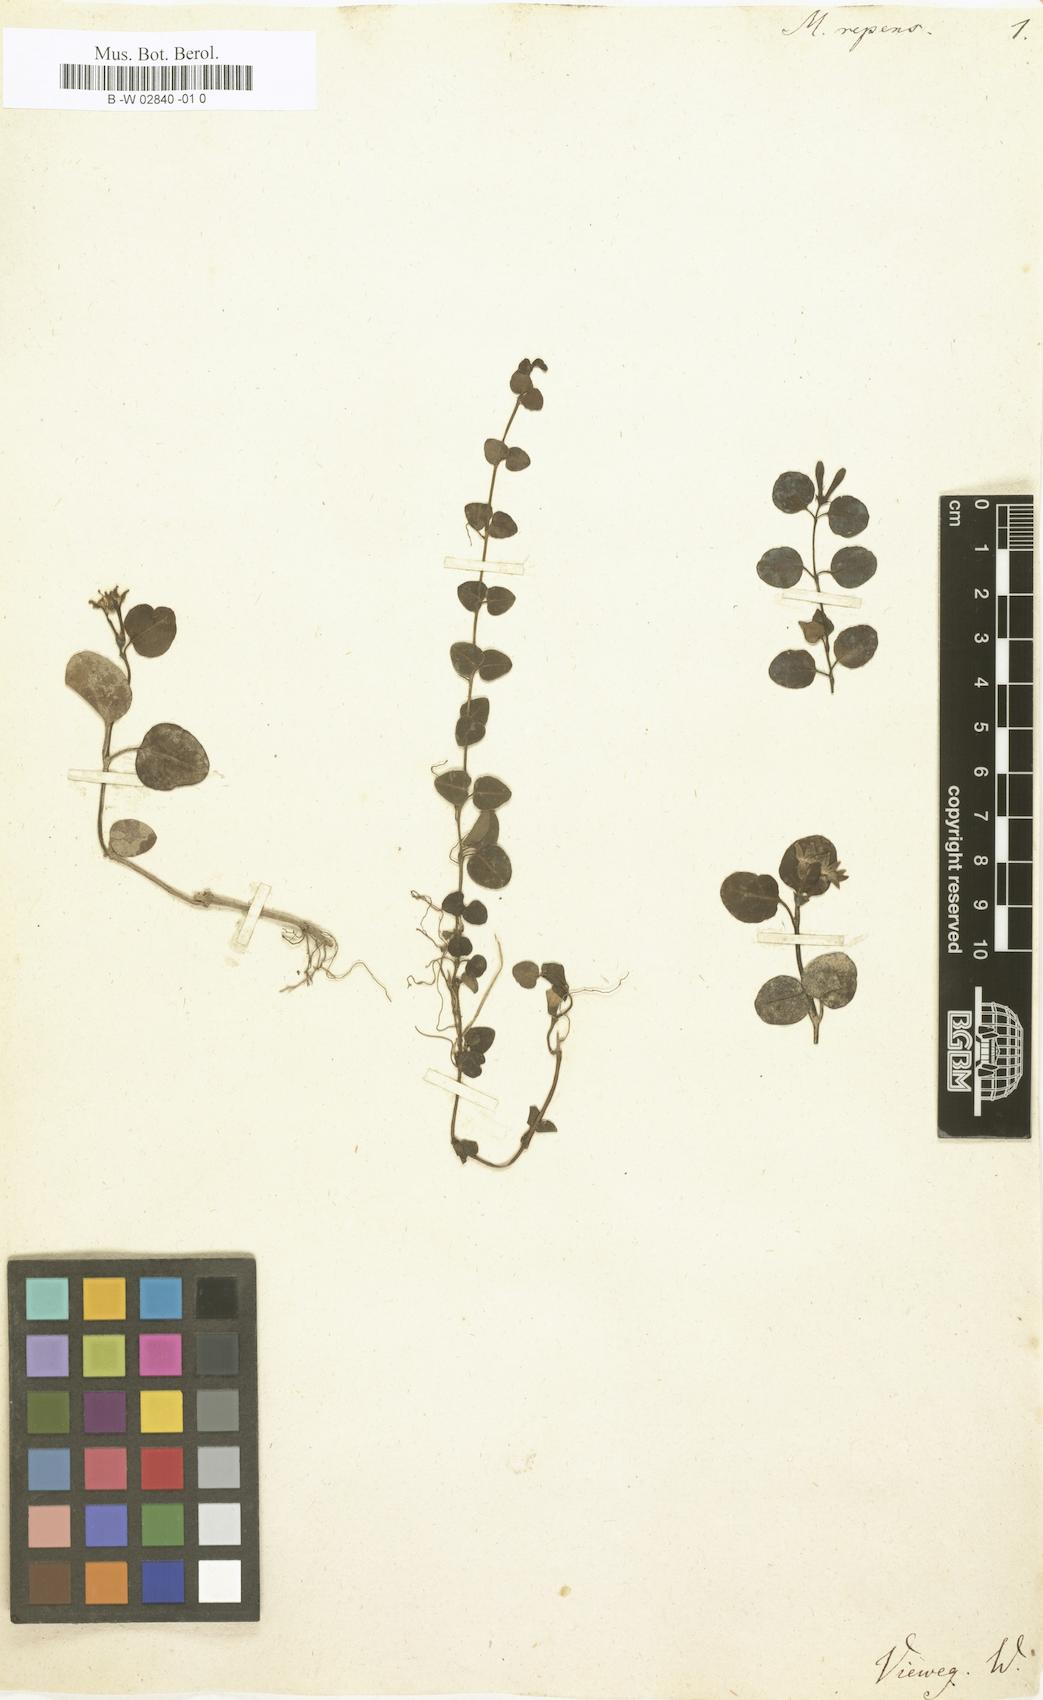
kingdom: Plantae
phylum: Tracheophyta
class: Magnoliopsida
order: Gentianales
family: Rubiaceae
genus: Mitchella
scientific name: Mitchella repens
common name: Partridge-berry
